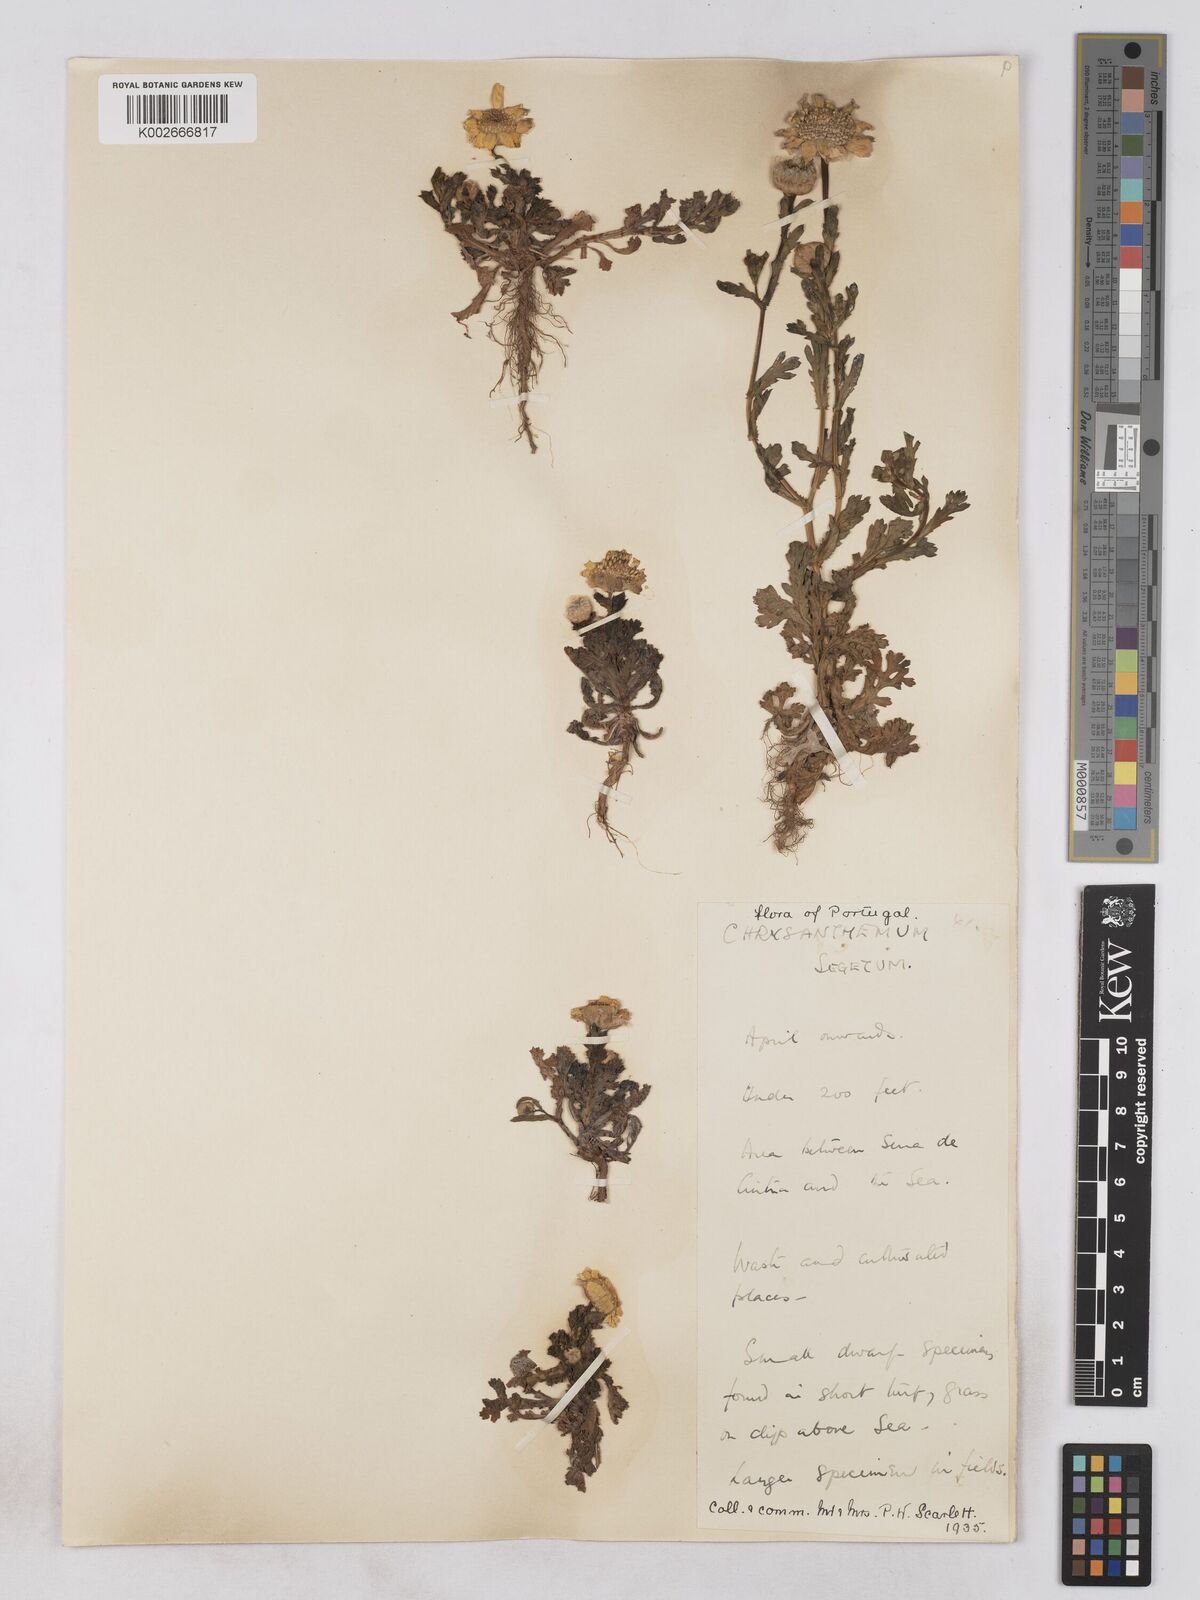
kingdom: Plantae
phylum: Tracheophyta
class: Magnoliopsida
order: Asterales
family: Asteraceae
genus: Glebionis
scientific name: Glebionis segetum
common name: Corndaisy
